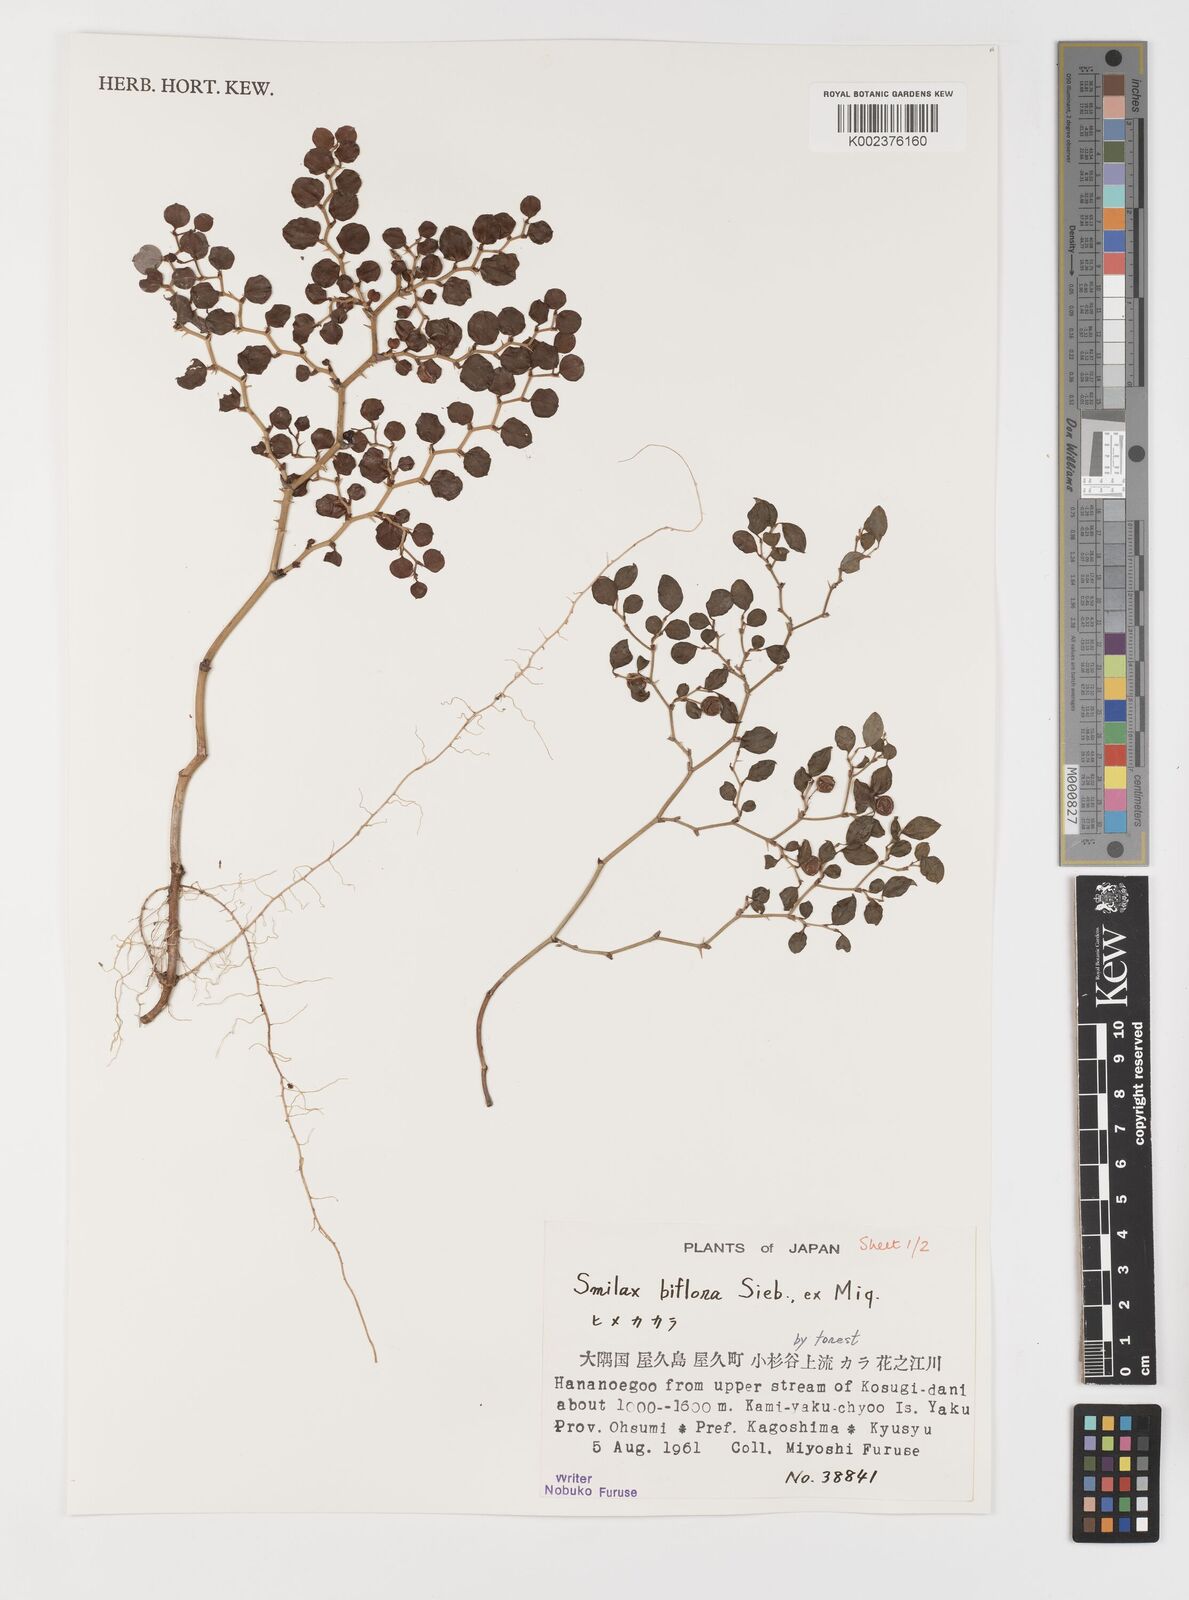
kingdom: Plantae
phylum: Tracheophyta
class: Liliopsida
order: Liliales
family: Smilacaceae
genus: Smilax
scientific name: Smilax biflora
